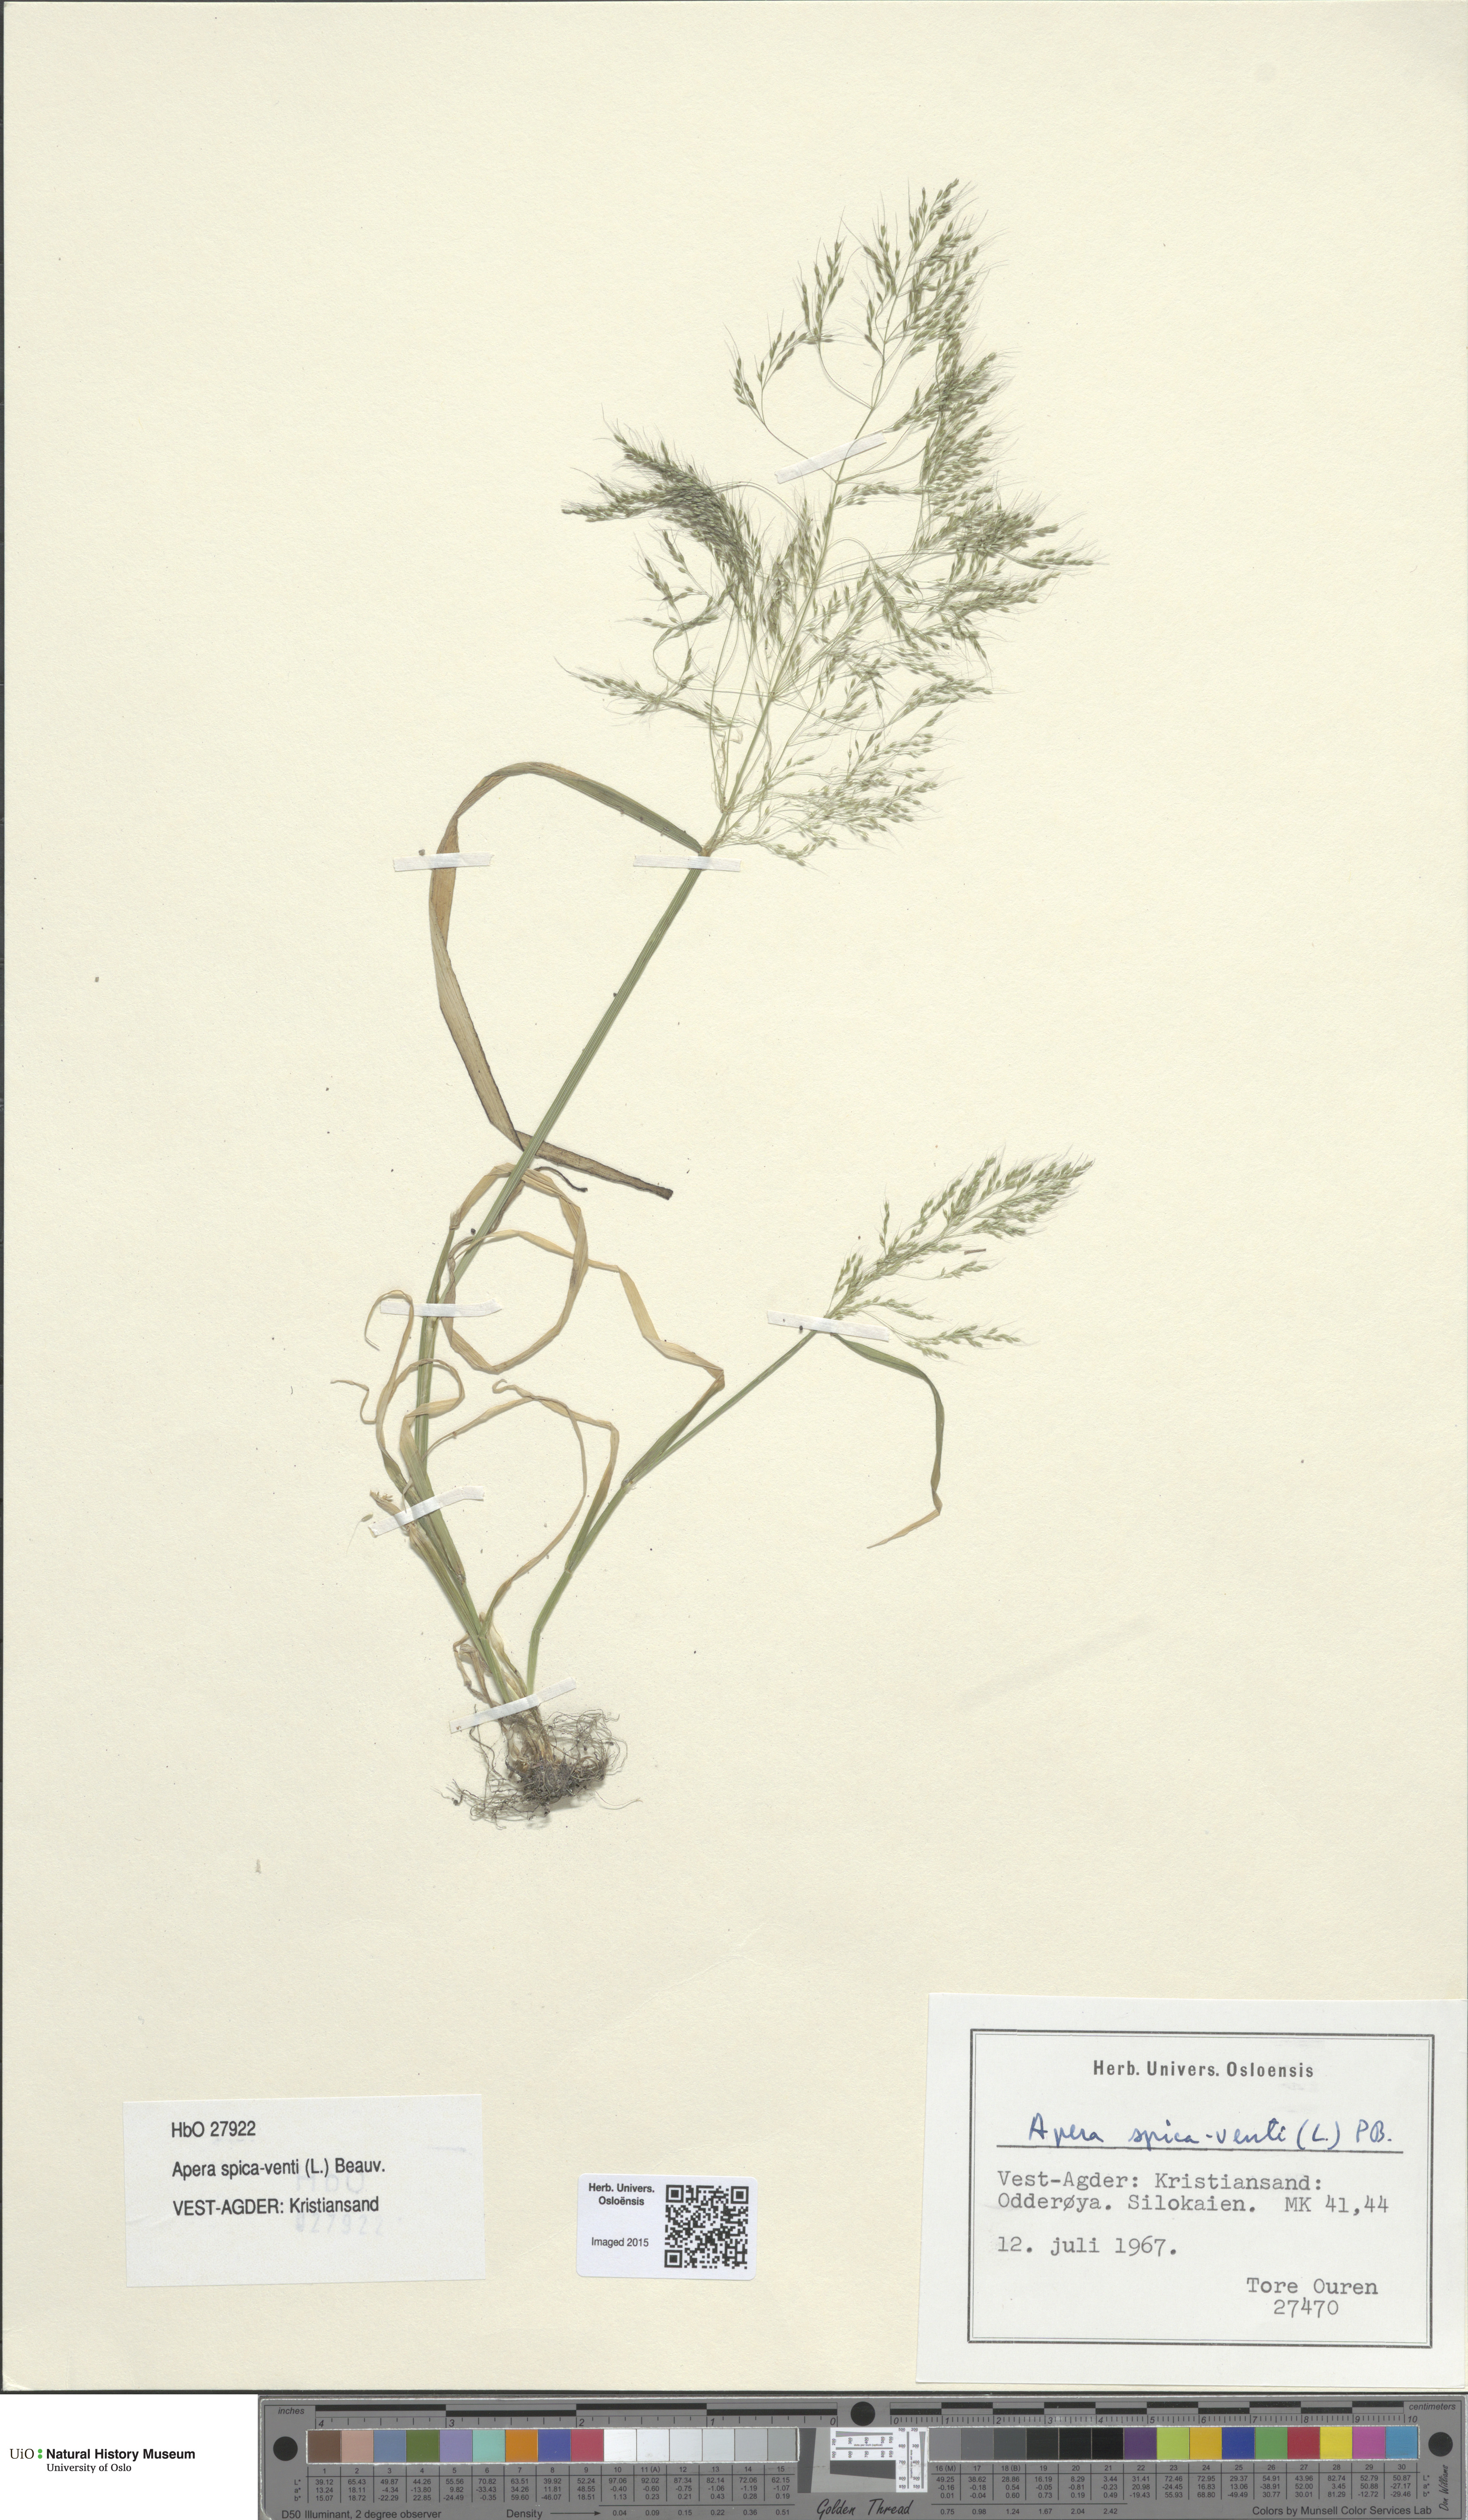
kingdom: Plantae
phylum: Tracheophyta
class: Liliopsida
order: Poales
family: Poaceae
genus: Apera
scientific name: Apera spica-venti
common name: Loose silky-bent
